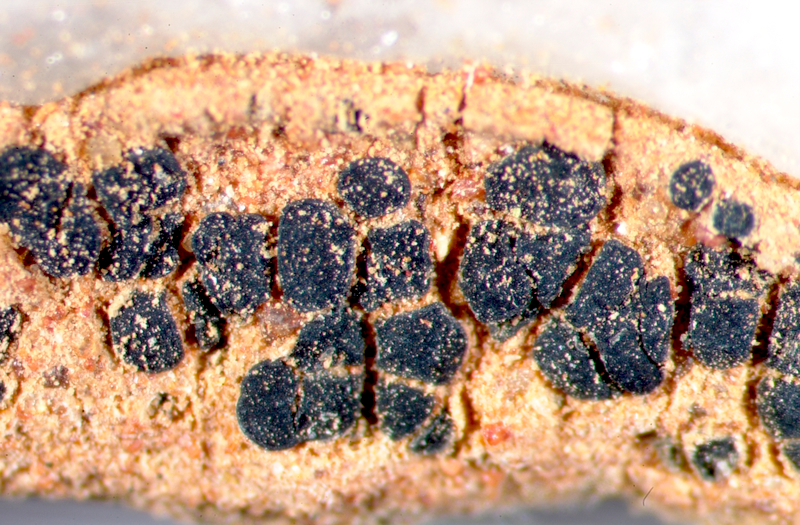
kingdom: Fungi
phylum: Ascomycota
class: Lichinomycetes
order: Lichinales
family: Peltulaceae
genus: Peltula
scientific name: Peltula inversa
